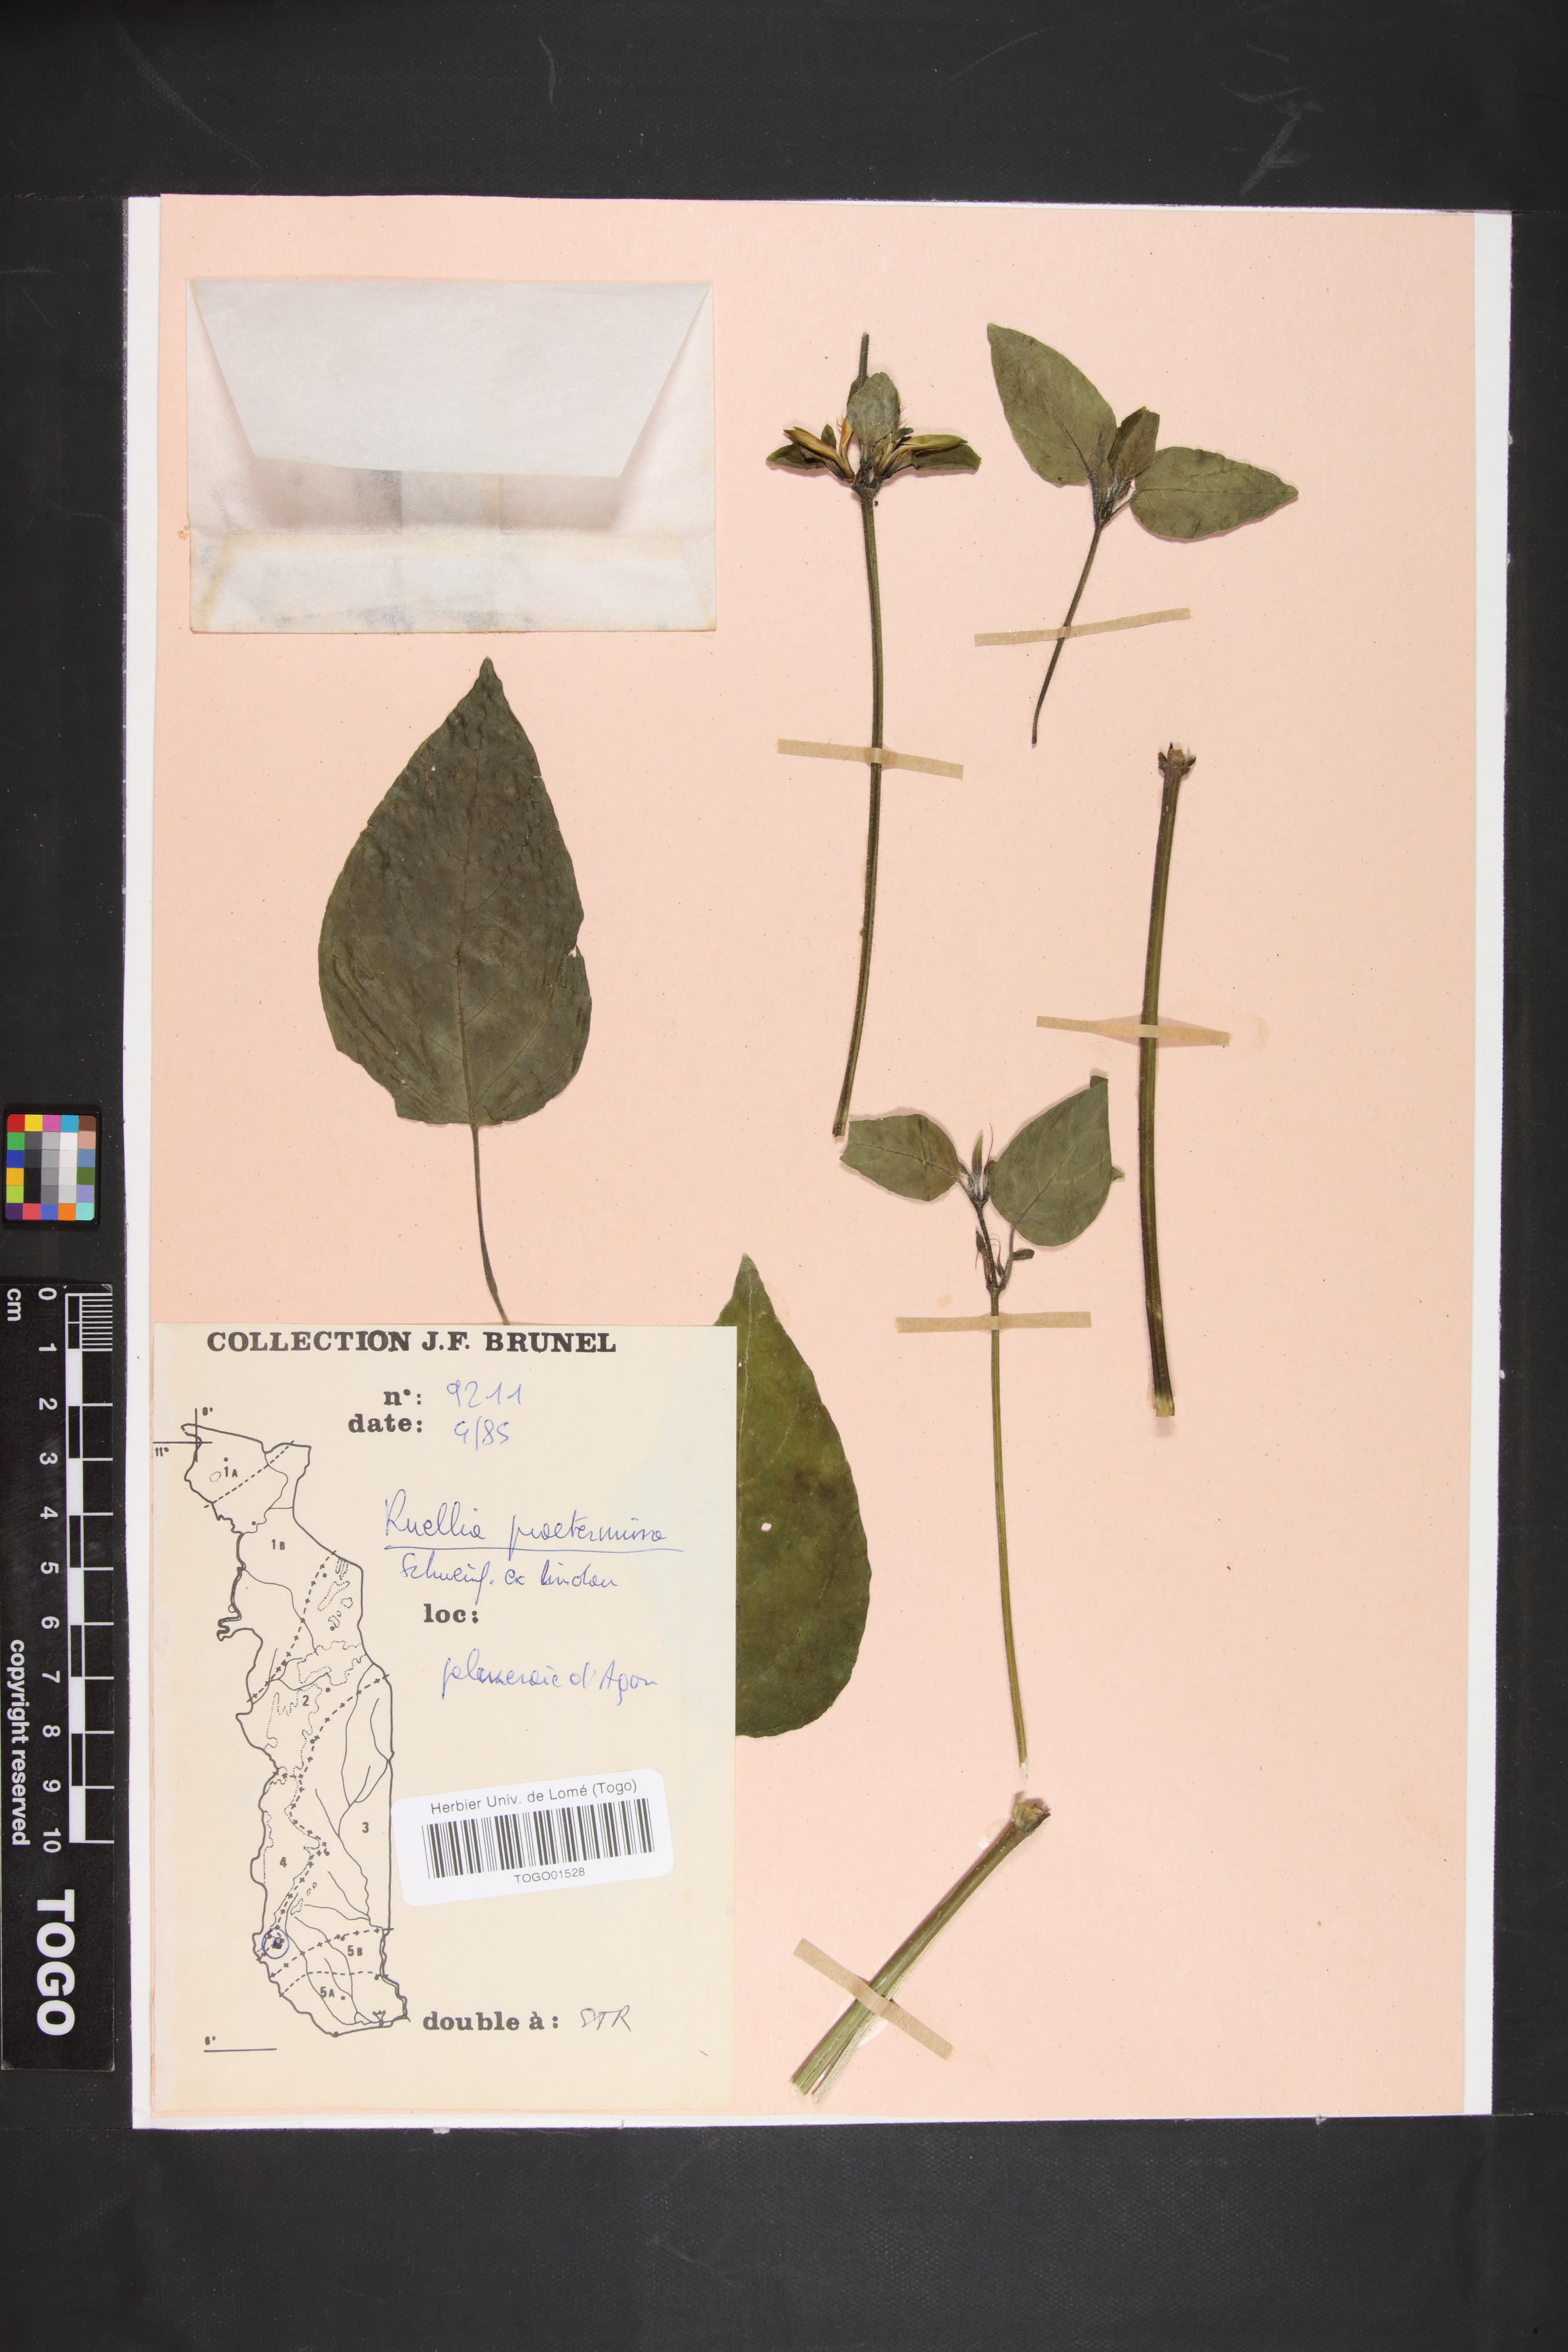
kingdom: Plantae
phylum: Tracheophyta
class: Magnoliopsida
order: Lamiales
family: Acanthaceae
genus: Ruellia
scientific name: Ruellia praetermissa
